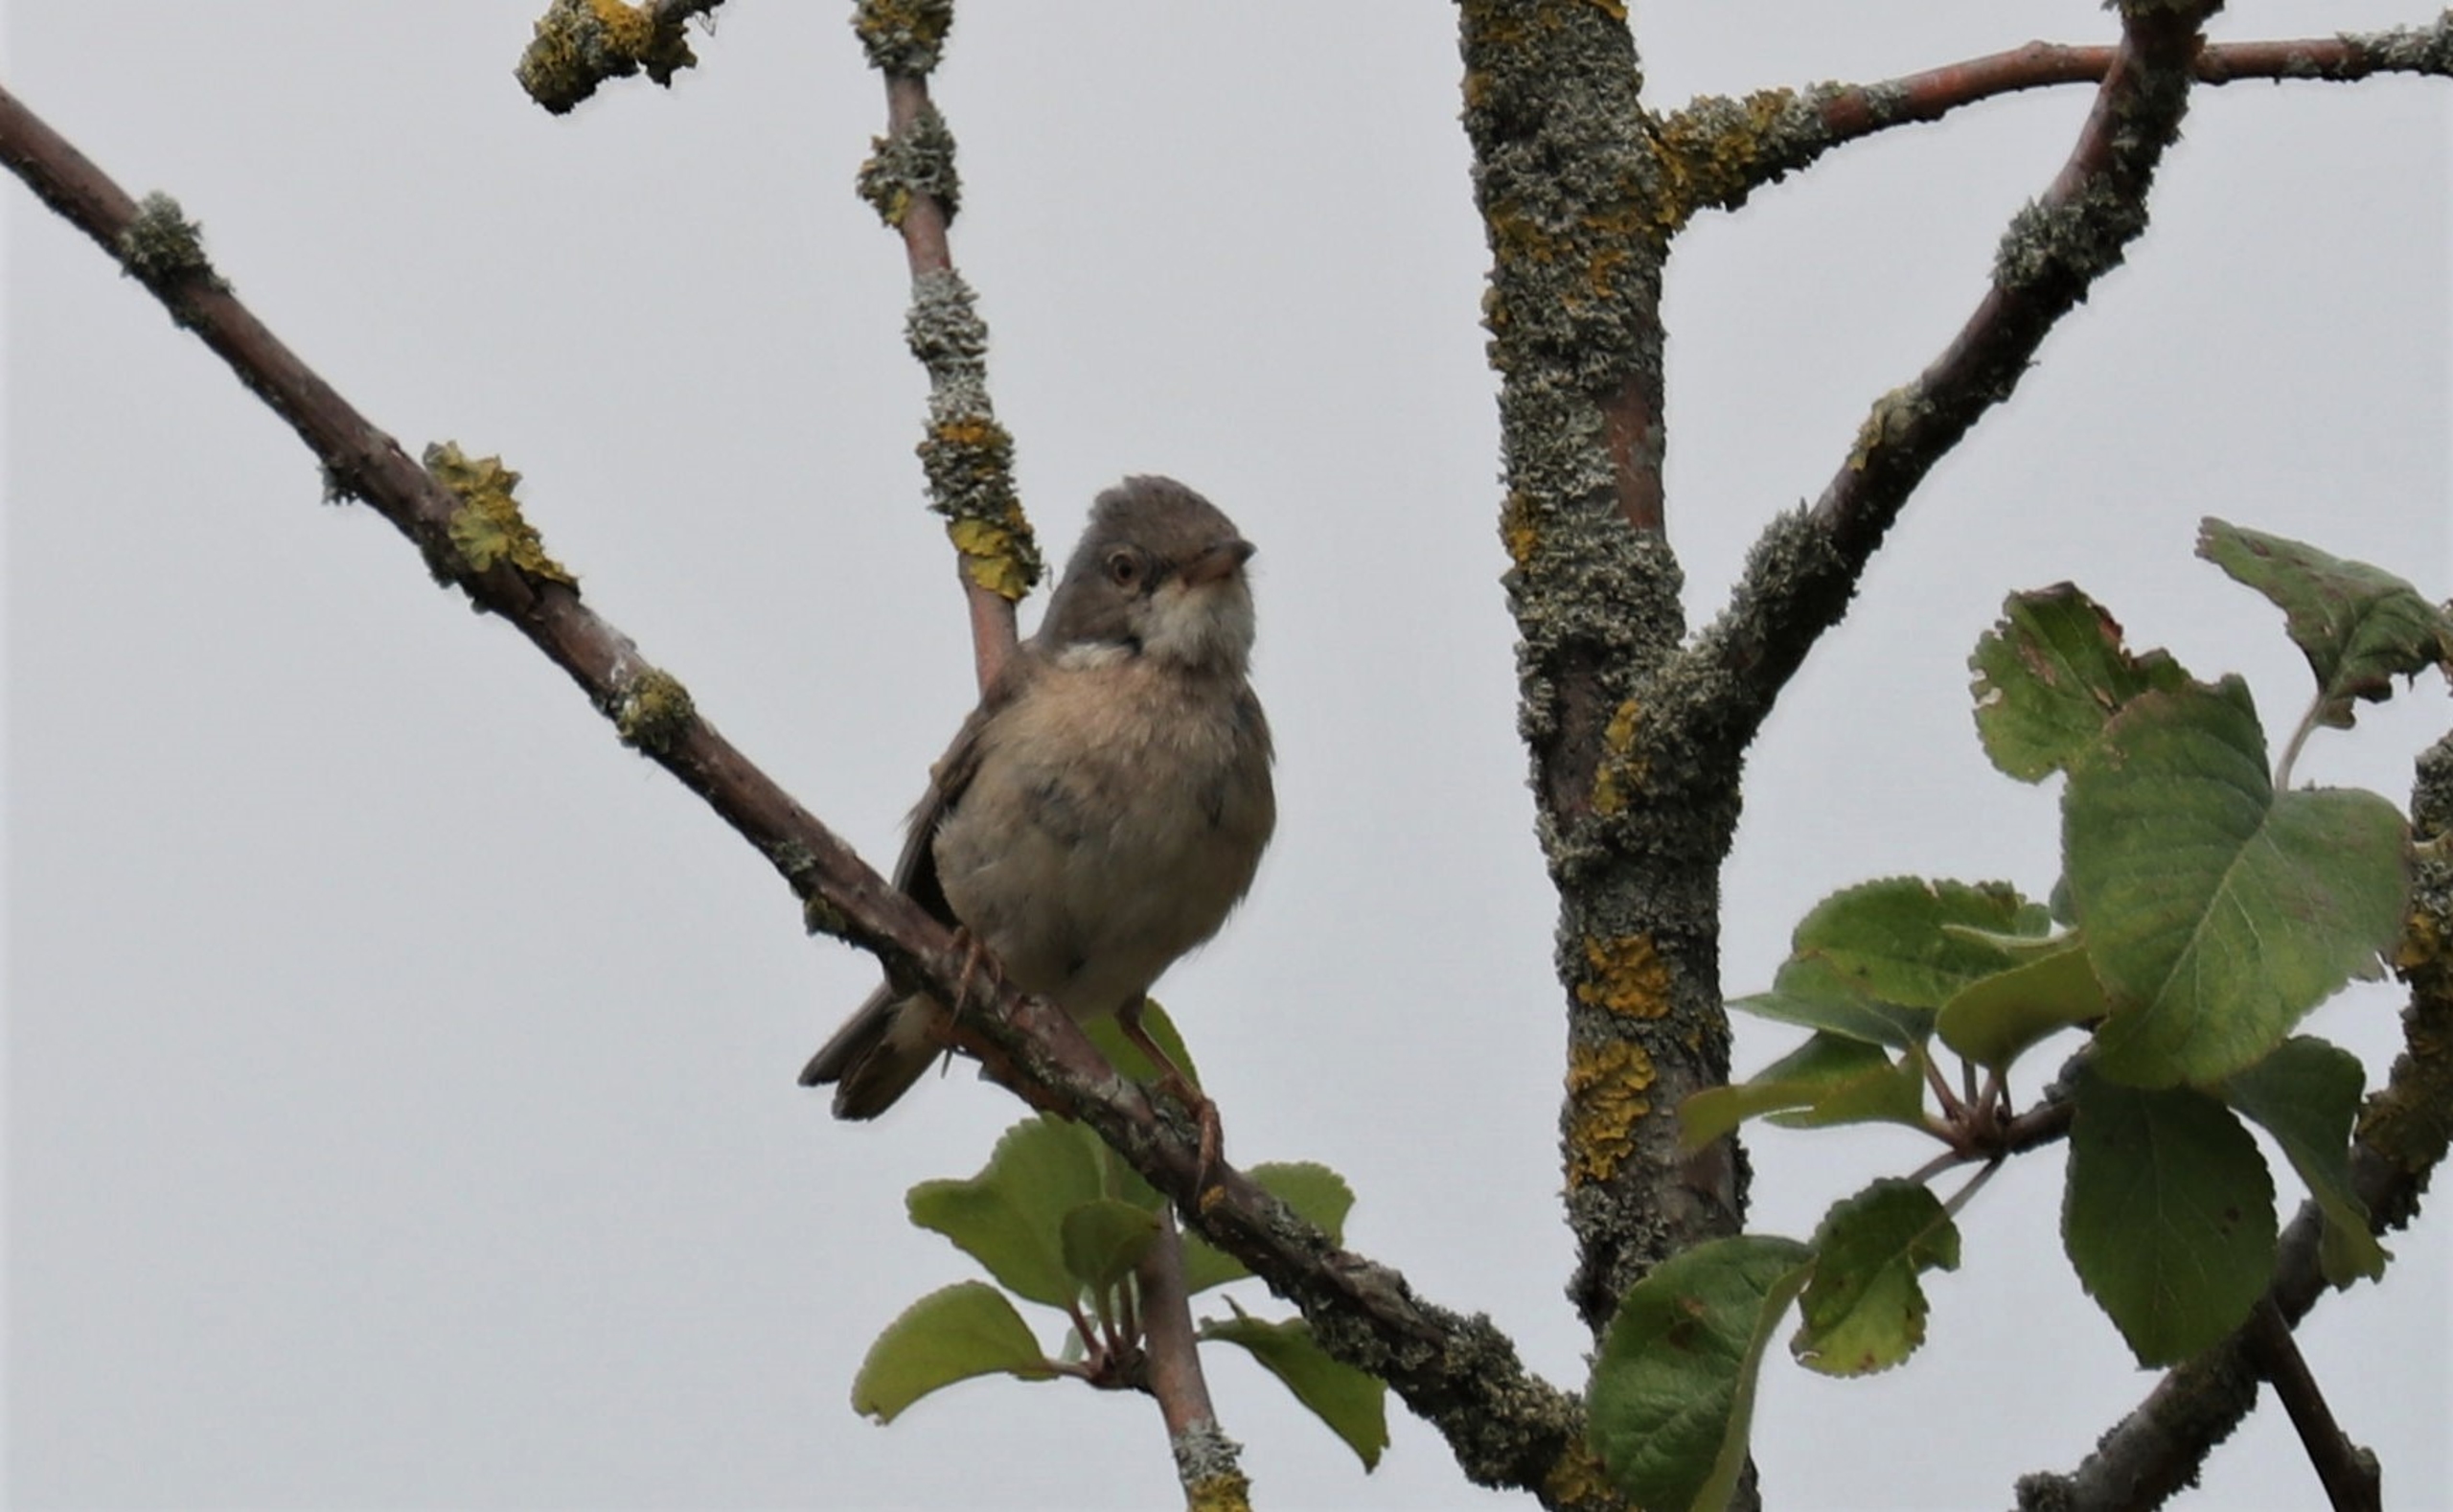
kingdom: Animalia
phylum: Chordata
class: Aves
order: Passeriformes
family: Sylviidae
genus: Sylvia
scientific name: Sylvia communis
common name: Tornsanger
